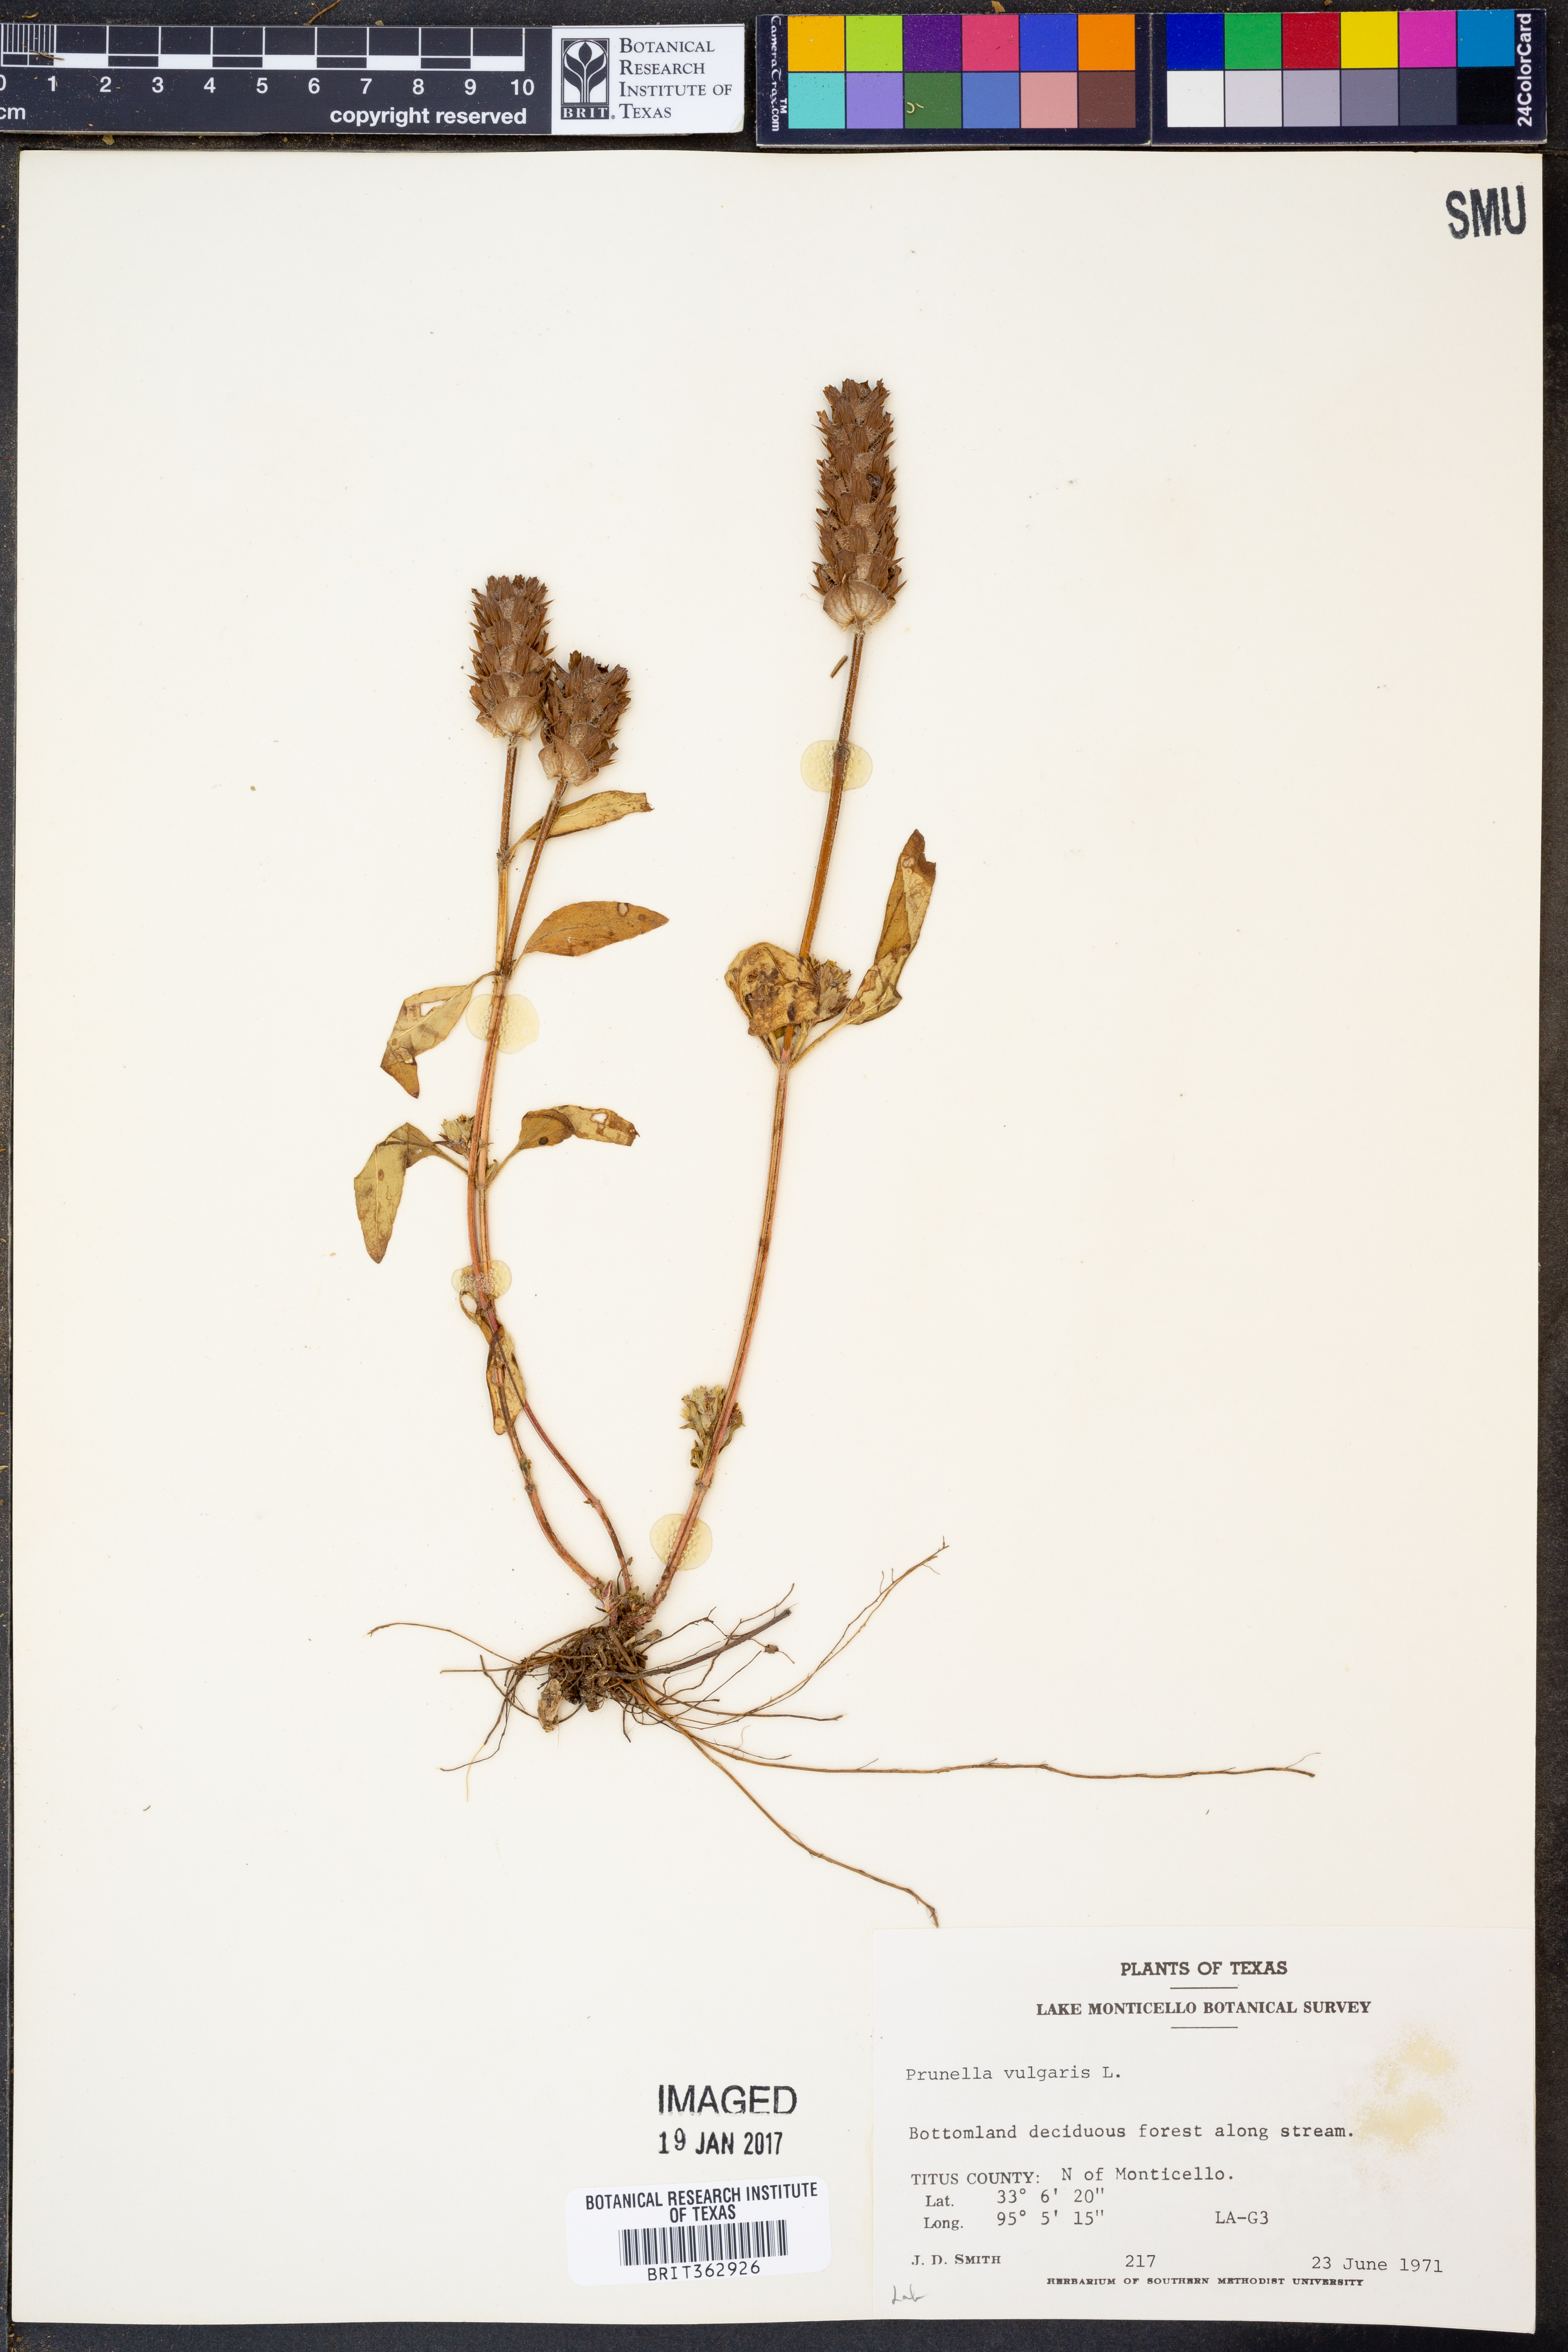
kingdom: Plantae
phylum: Tracheophyta
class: Magnoliopsida
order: Lamiales
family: Lamiaceae
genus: Prunella
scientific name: Prunella vulgaris
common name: Heal-all
